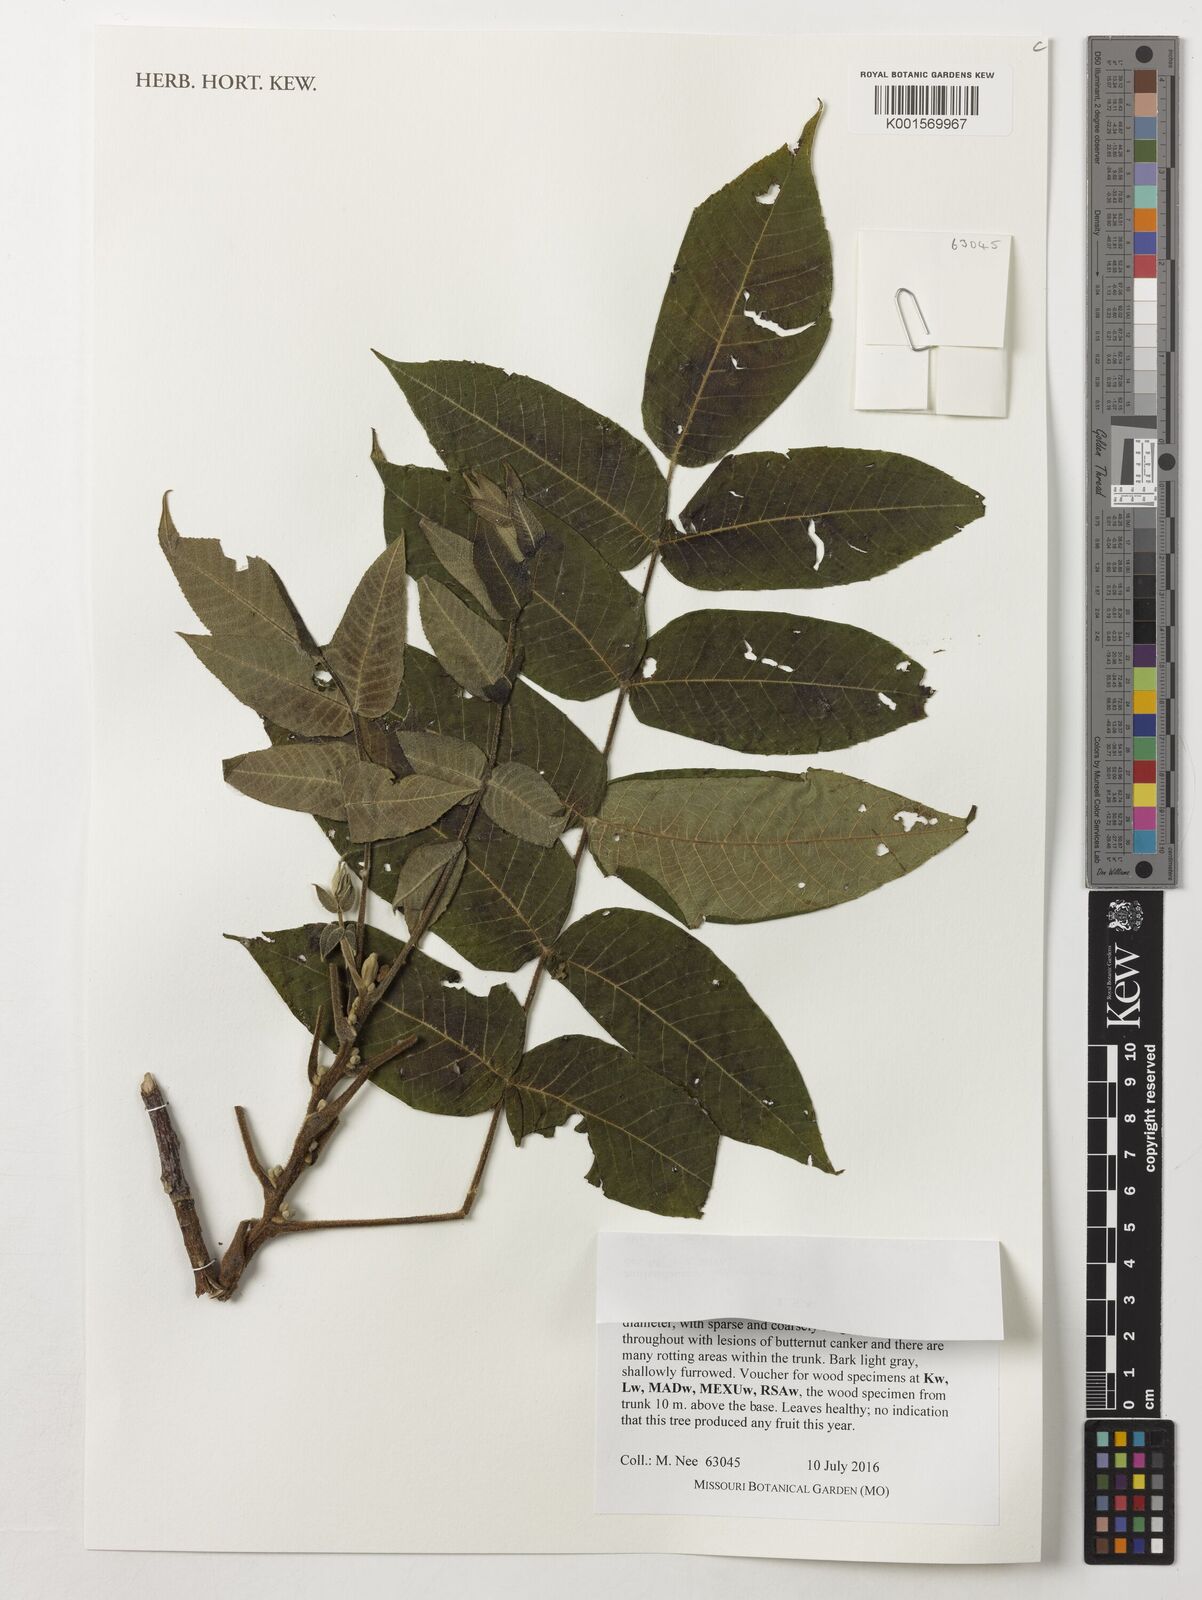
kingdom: Plantae
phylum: Tracheophyta
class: Magnoliopsida
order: Fagales
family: Juglandaceae
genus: Juglans
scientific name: Juglans cinerea
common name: Butternut
